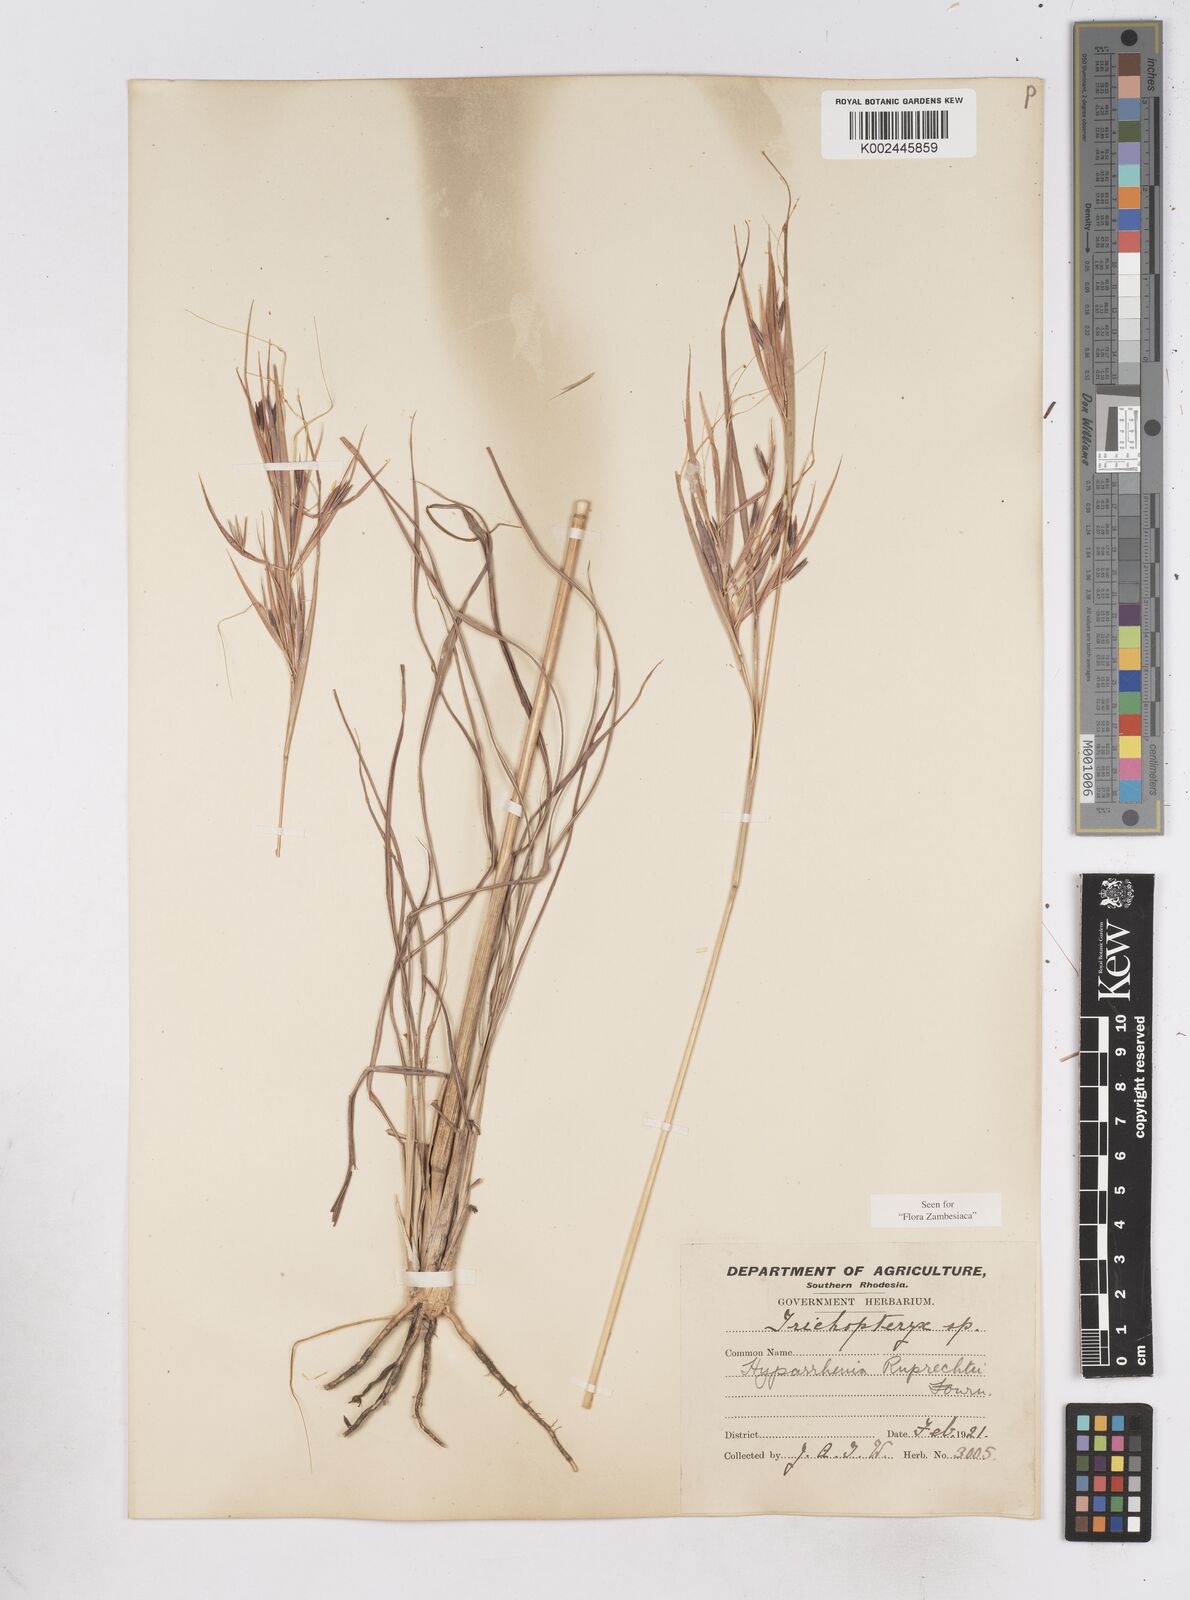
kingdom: Plantae
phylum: Tracheophyta
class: Liliopsida
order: Poales
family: Poaceae
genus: Hyperthelia
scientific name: Hyperthelia dissoluta
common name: Yellow thatching grass
